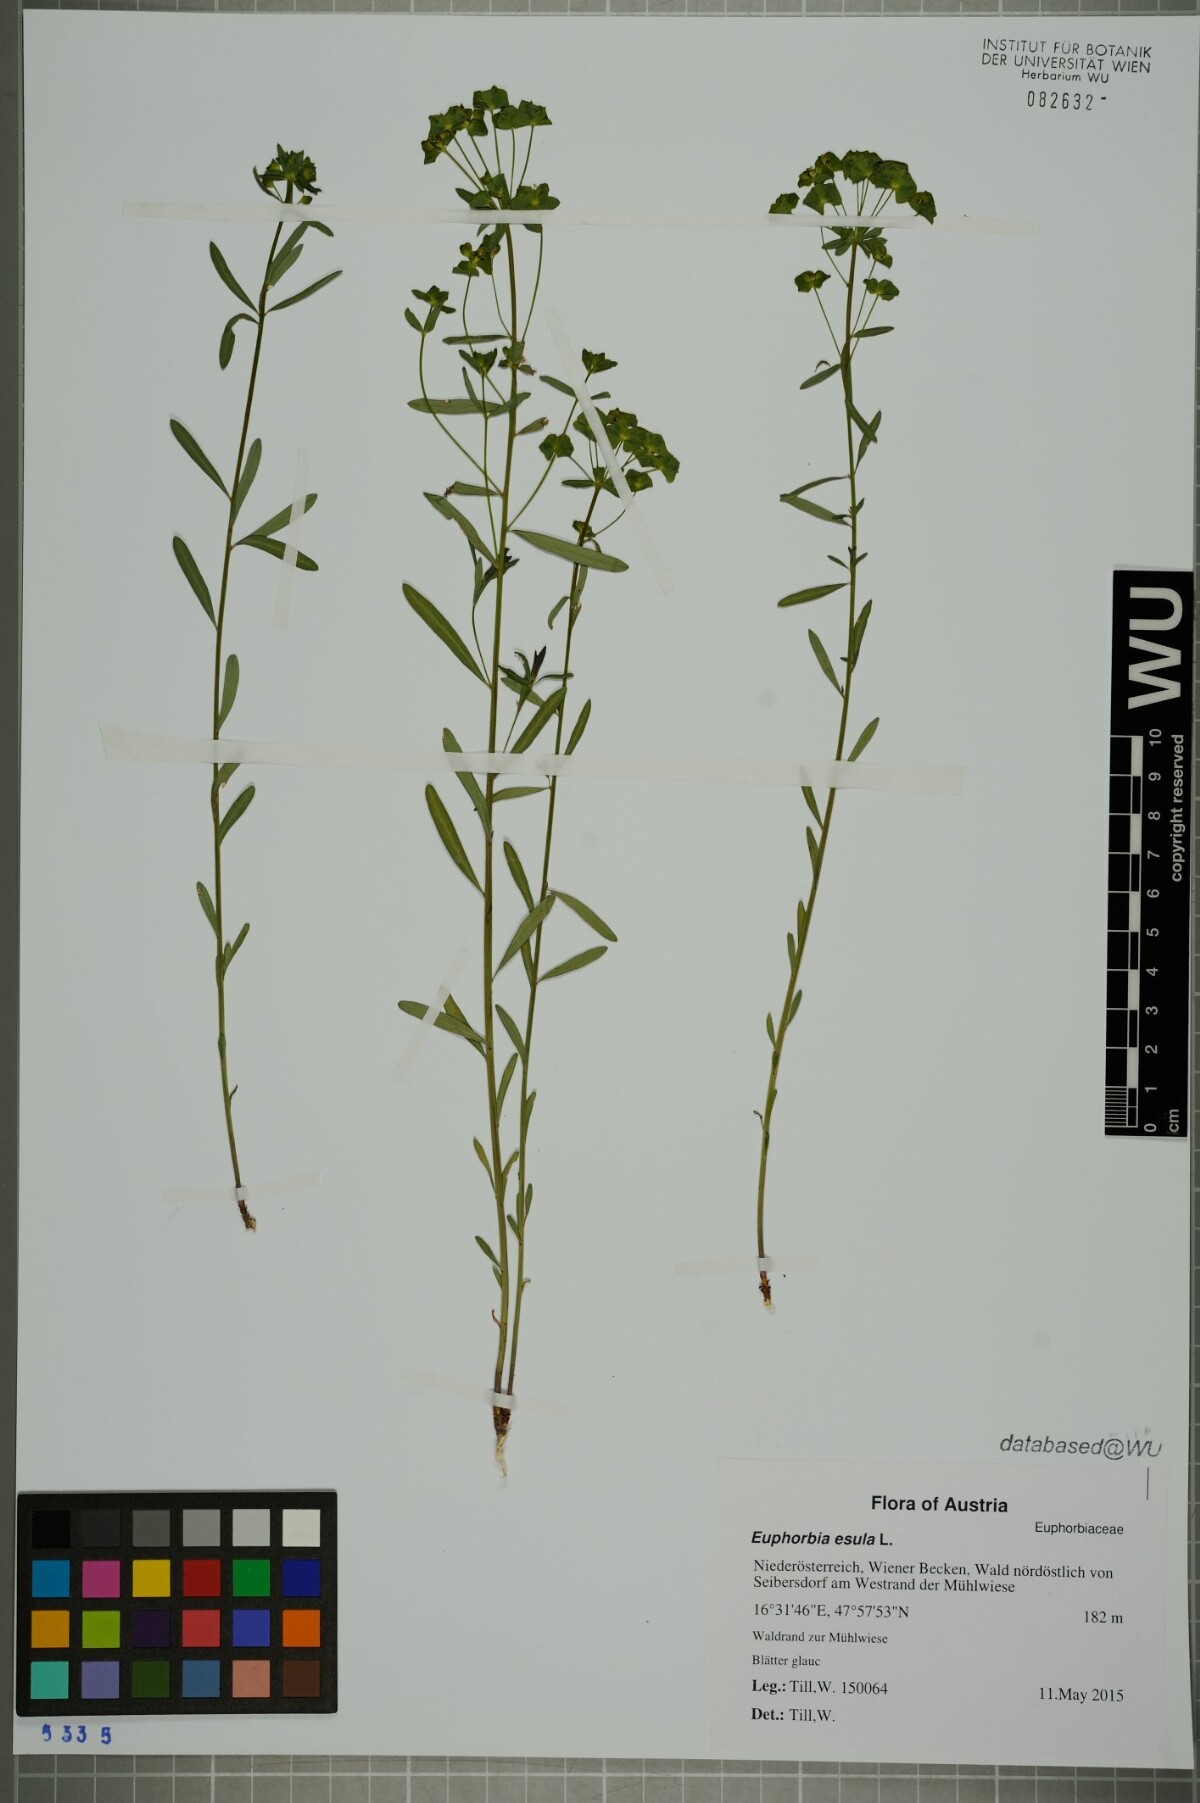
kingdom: Plantae
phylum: Tracheophyta
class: Magnoliopsida
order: Malpighiales
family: Euphorbiaceae
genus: Euphorbia
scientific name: Euphorbia esula
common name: Leafy spurge
